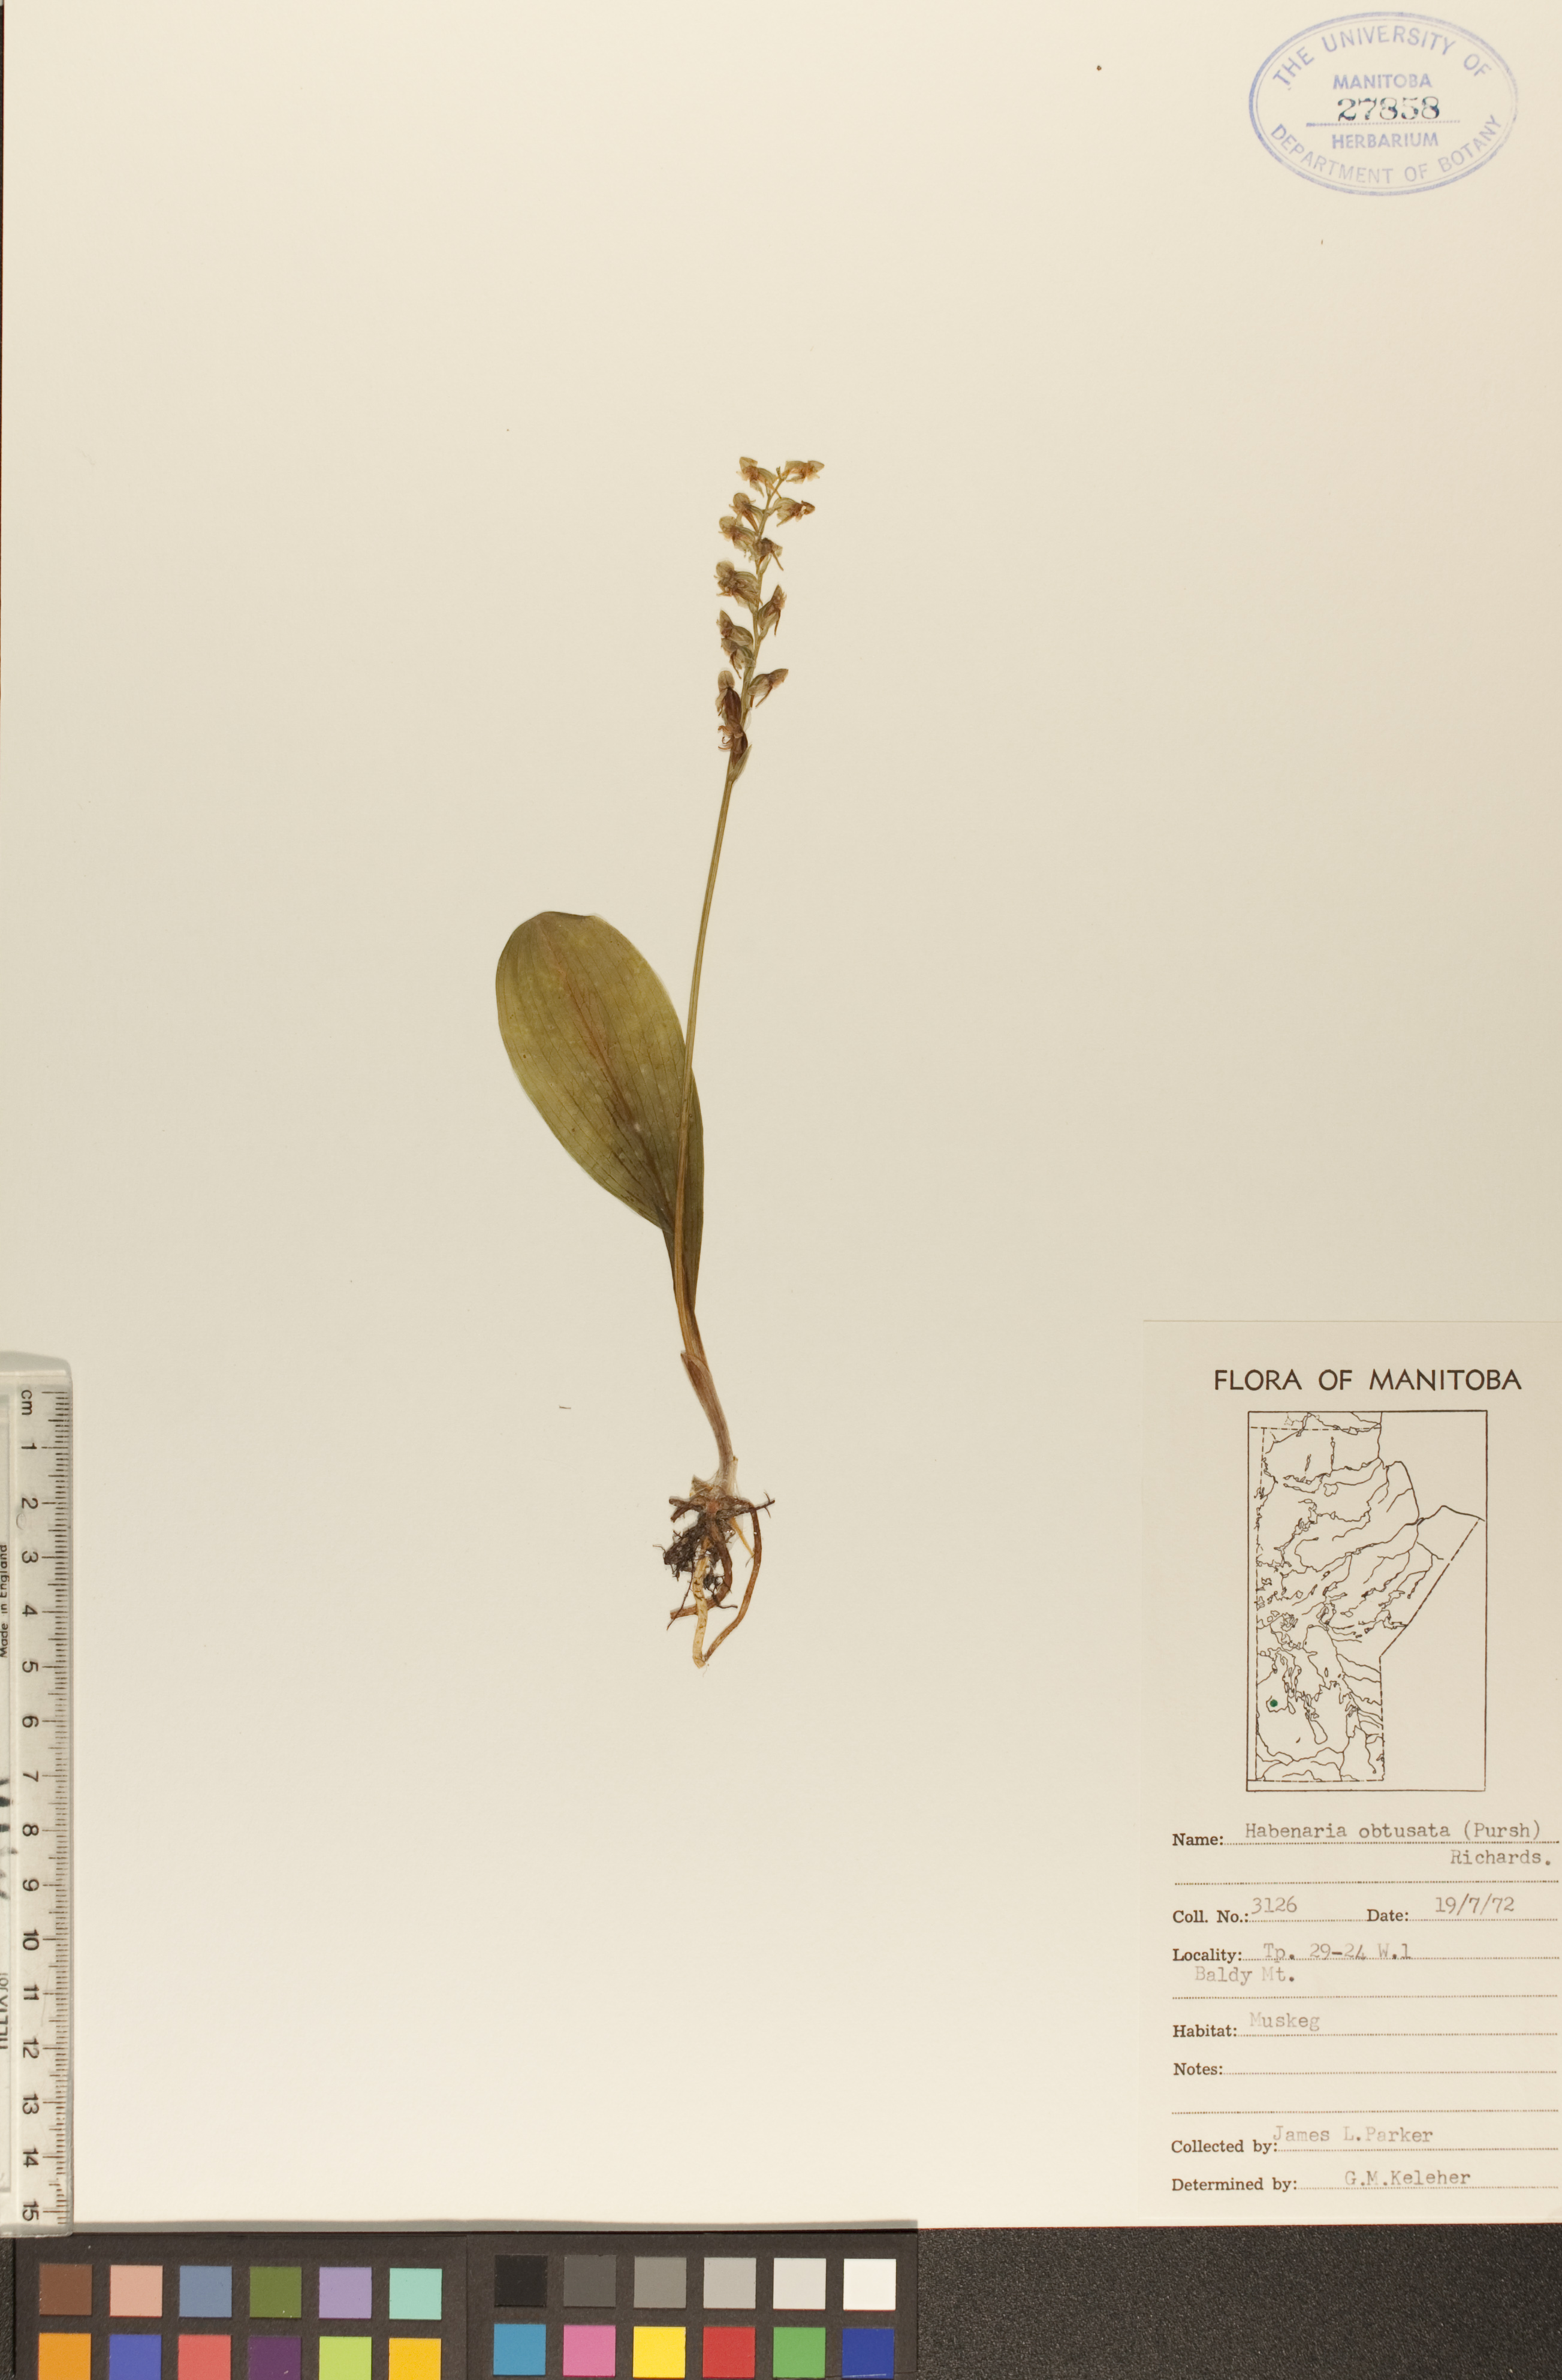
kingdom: Plantae
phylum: Tracheophyta
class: Liliopsida
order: Asparagales
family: Orchidaceae
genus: Platanthera
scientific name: Platanthera obtusata
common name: Blunt bog orchid
